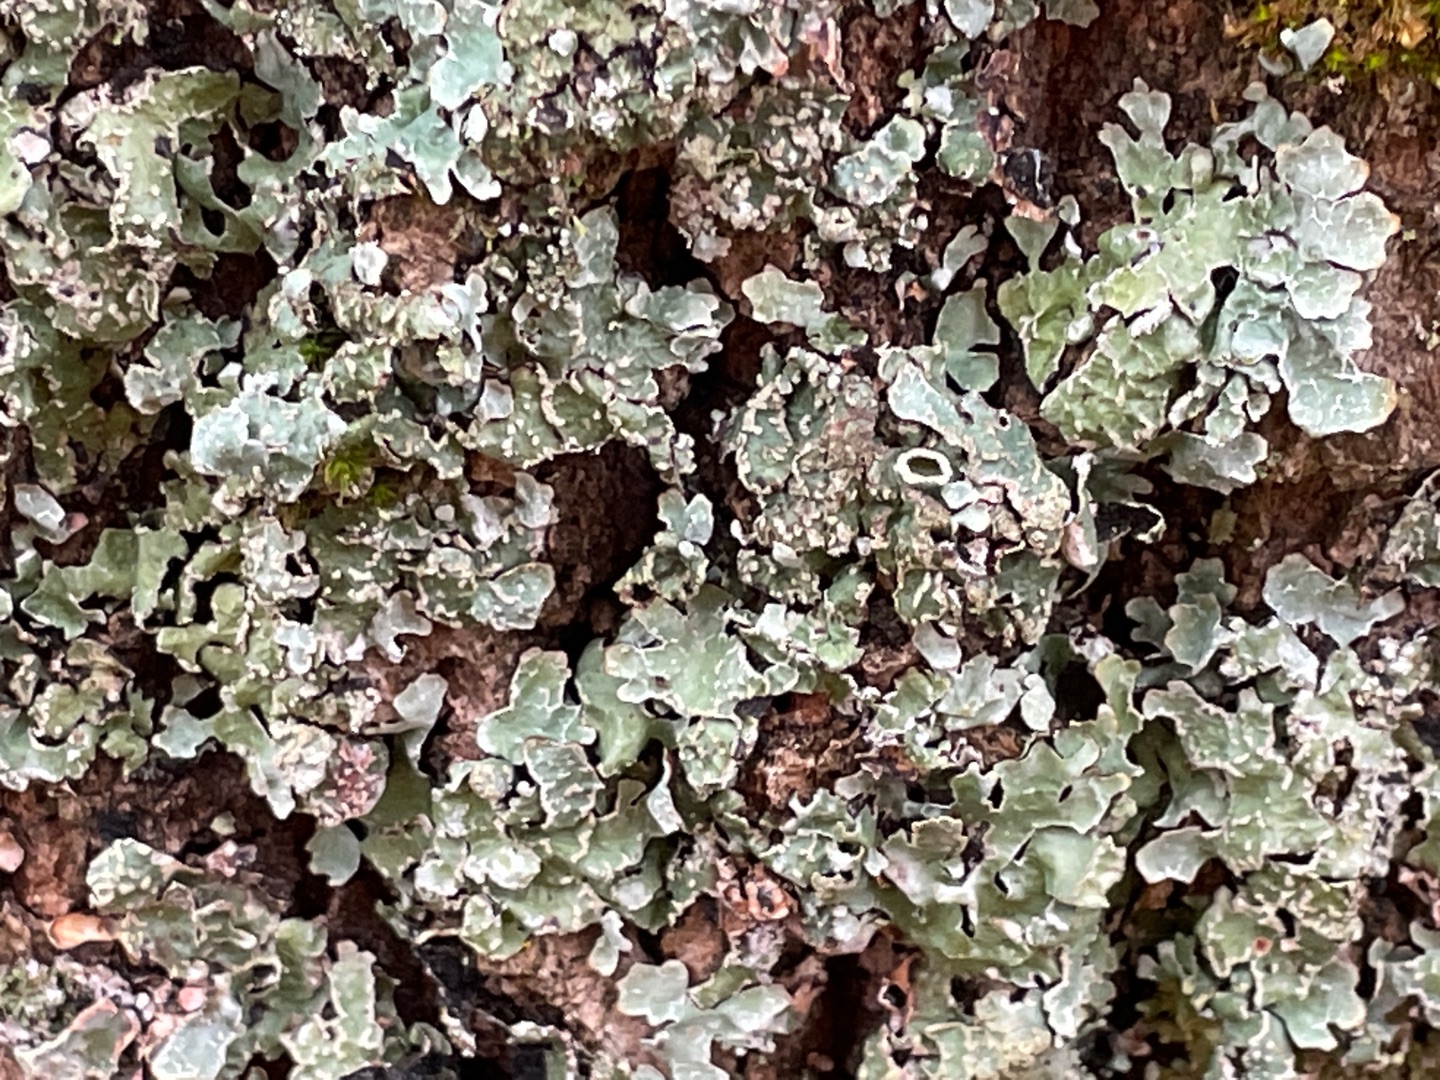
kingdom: Fungi
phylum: Ascomycota
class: Lecanoromycetes
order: Lecanorales
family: Parmeliaceae
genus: Parmelia
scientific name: Parmelia sulcata
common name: Rynket skållav
